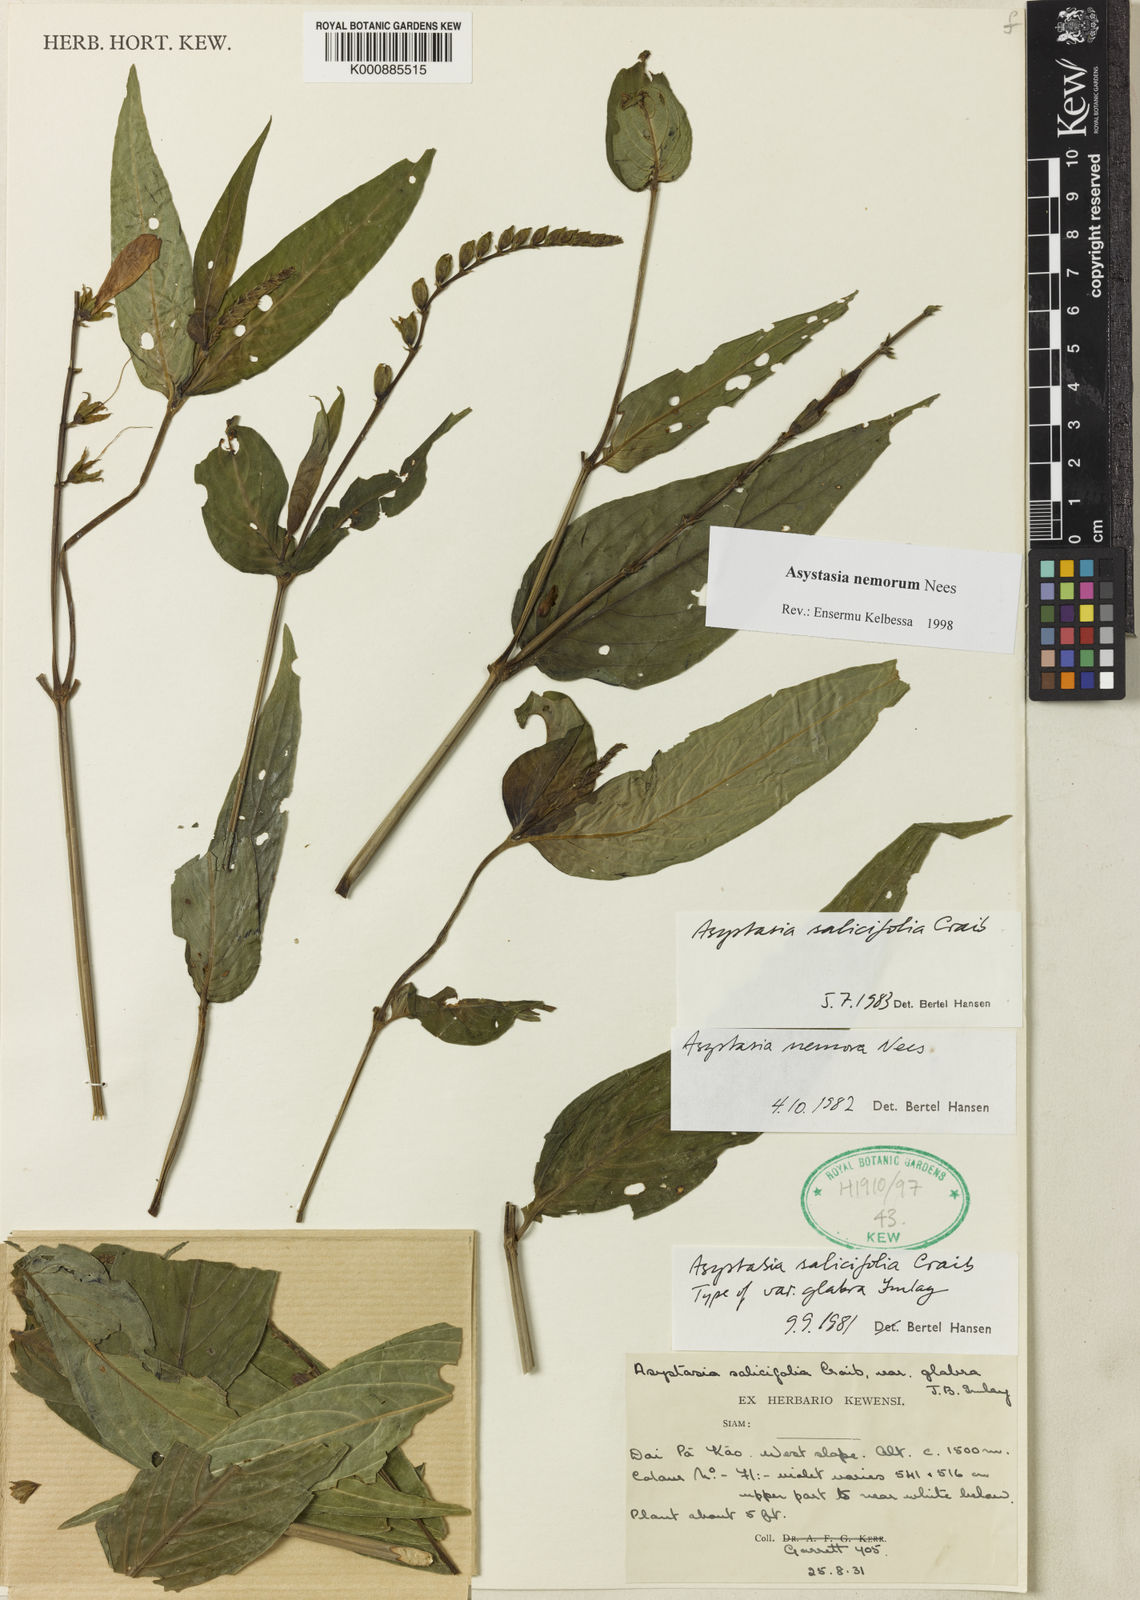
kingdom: Plantae
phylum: Tracheophyta
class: Magnoliopsida
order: Lamiales
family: Acanthaceae
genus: Asystasia
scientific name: Asystasia nemorum
